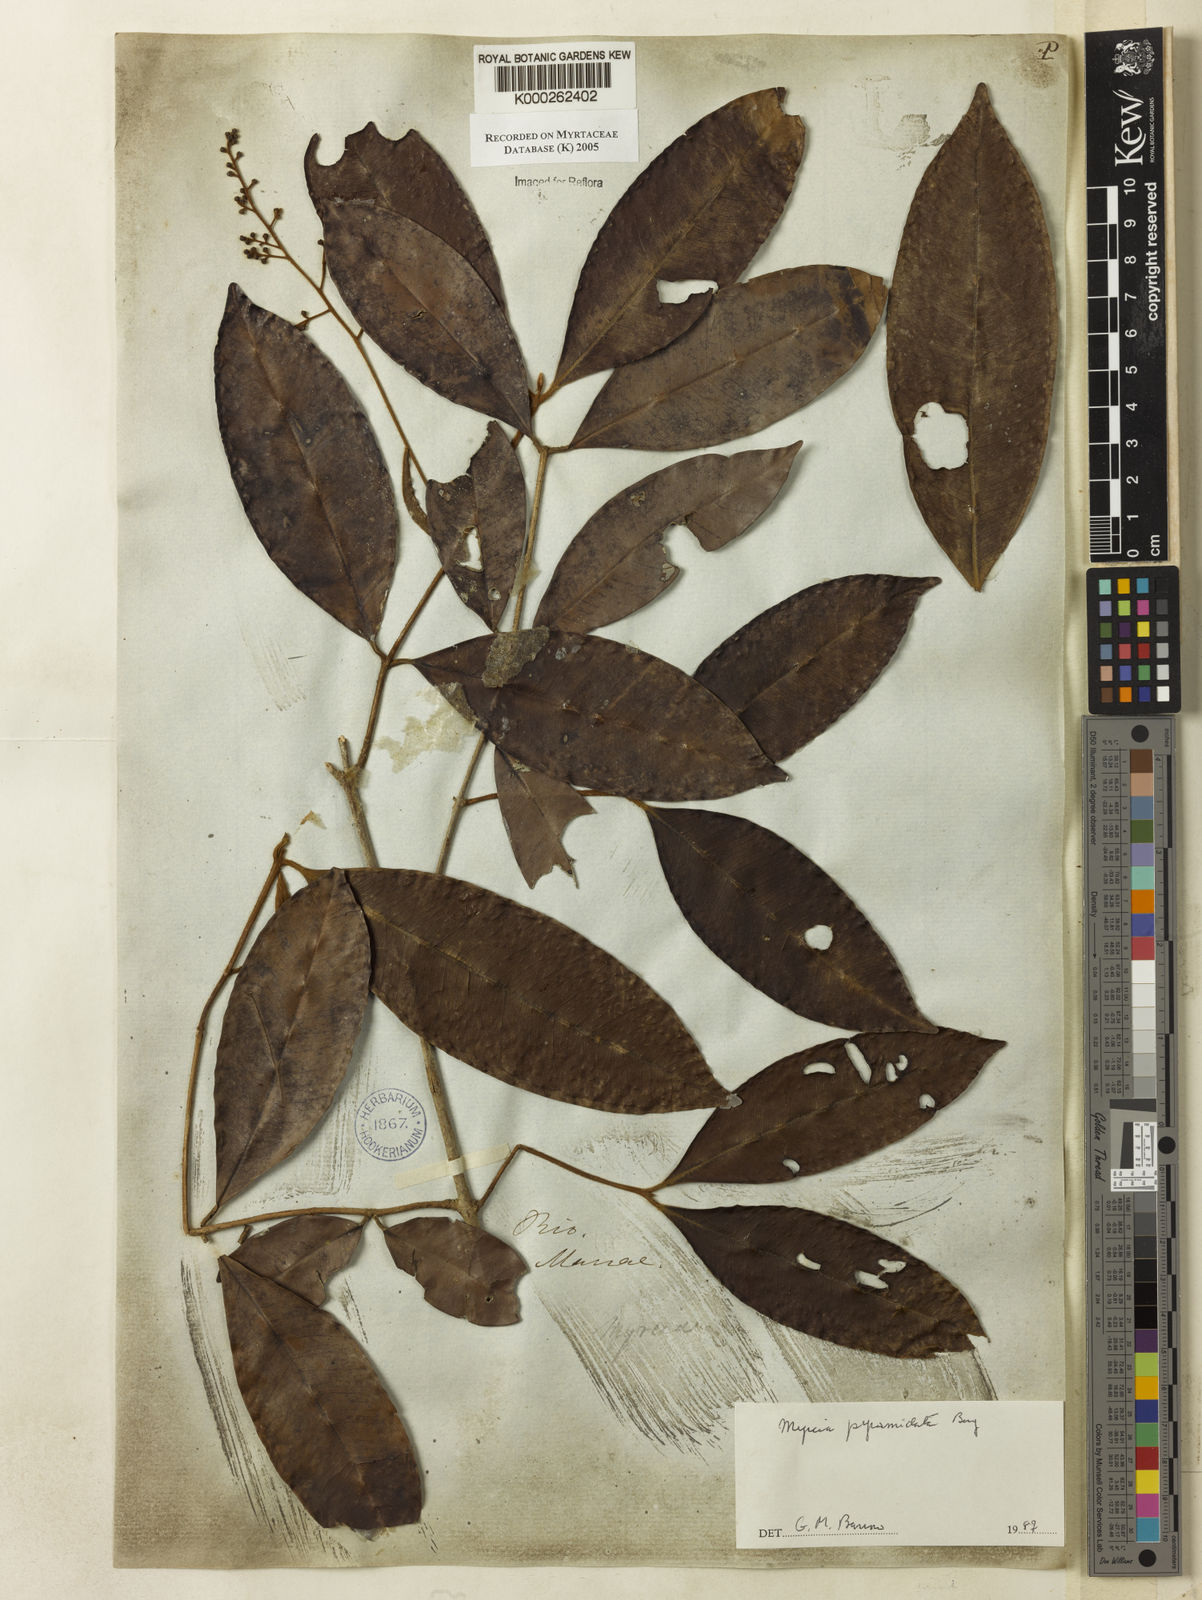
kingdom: Plantae
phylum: Tracheophyta
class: Magnoliopsida
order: Myrtales
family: Myrtaceae
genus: Myrcia
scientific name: Myrcia rubiginosa
